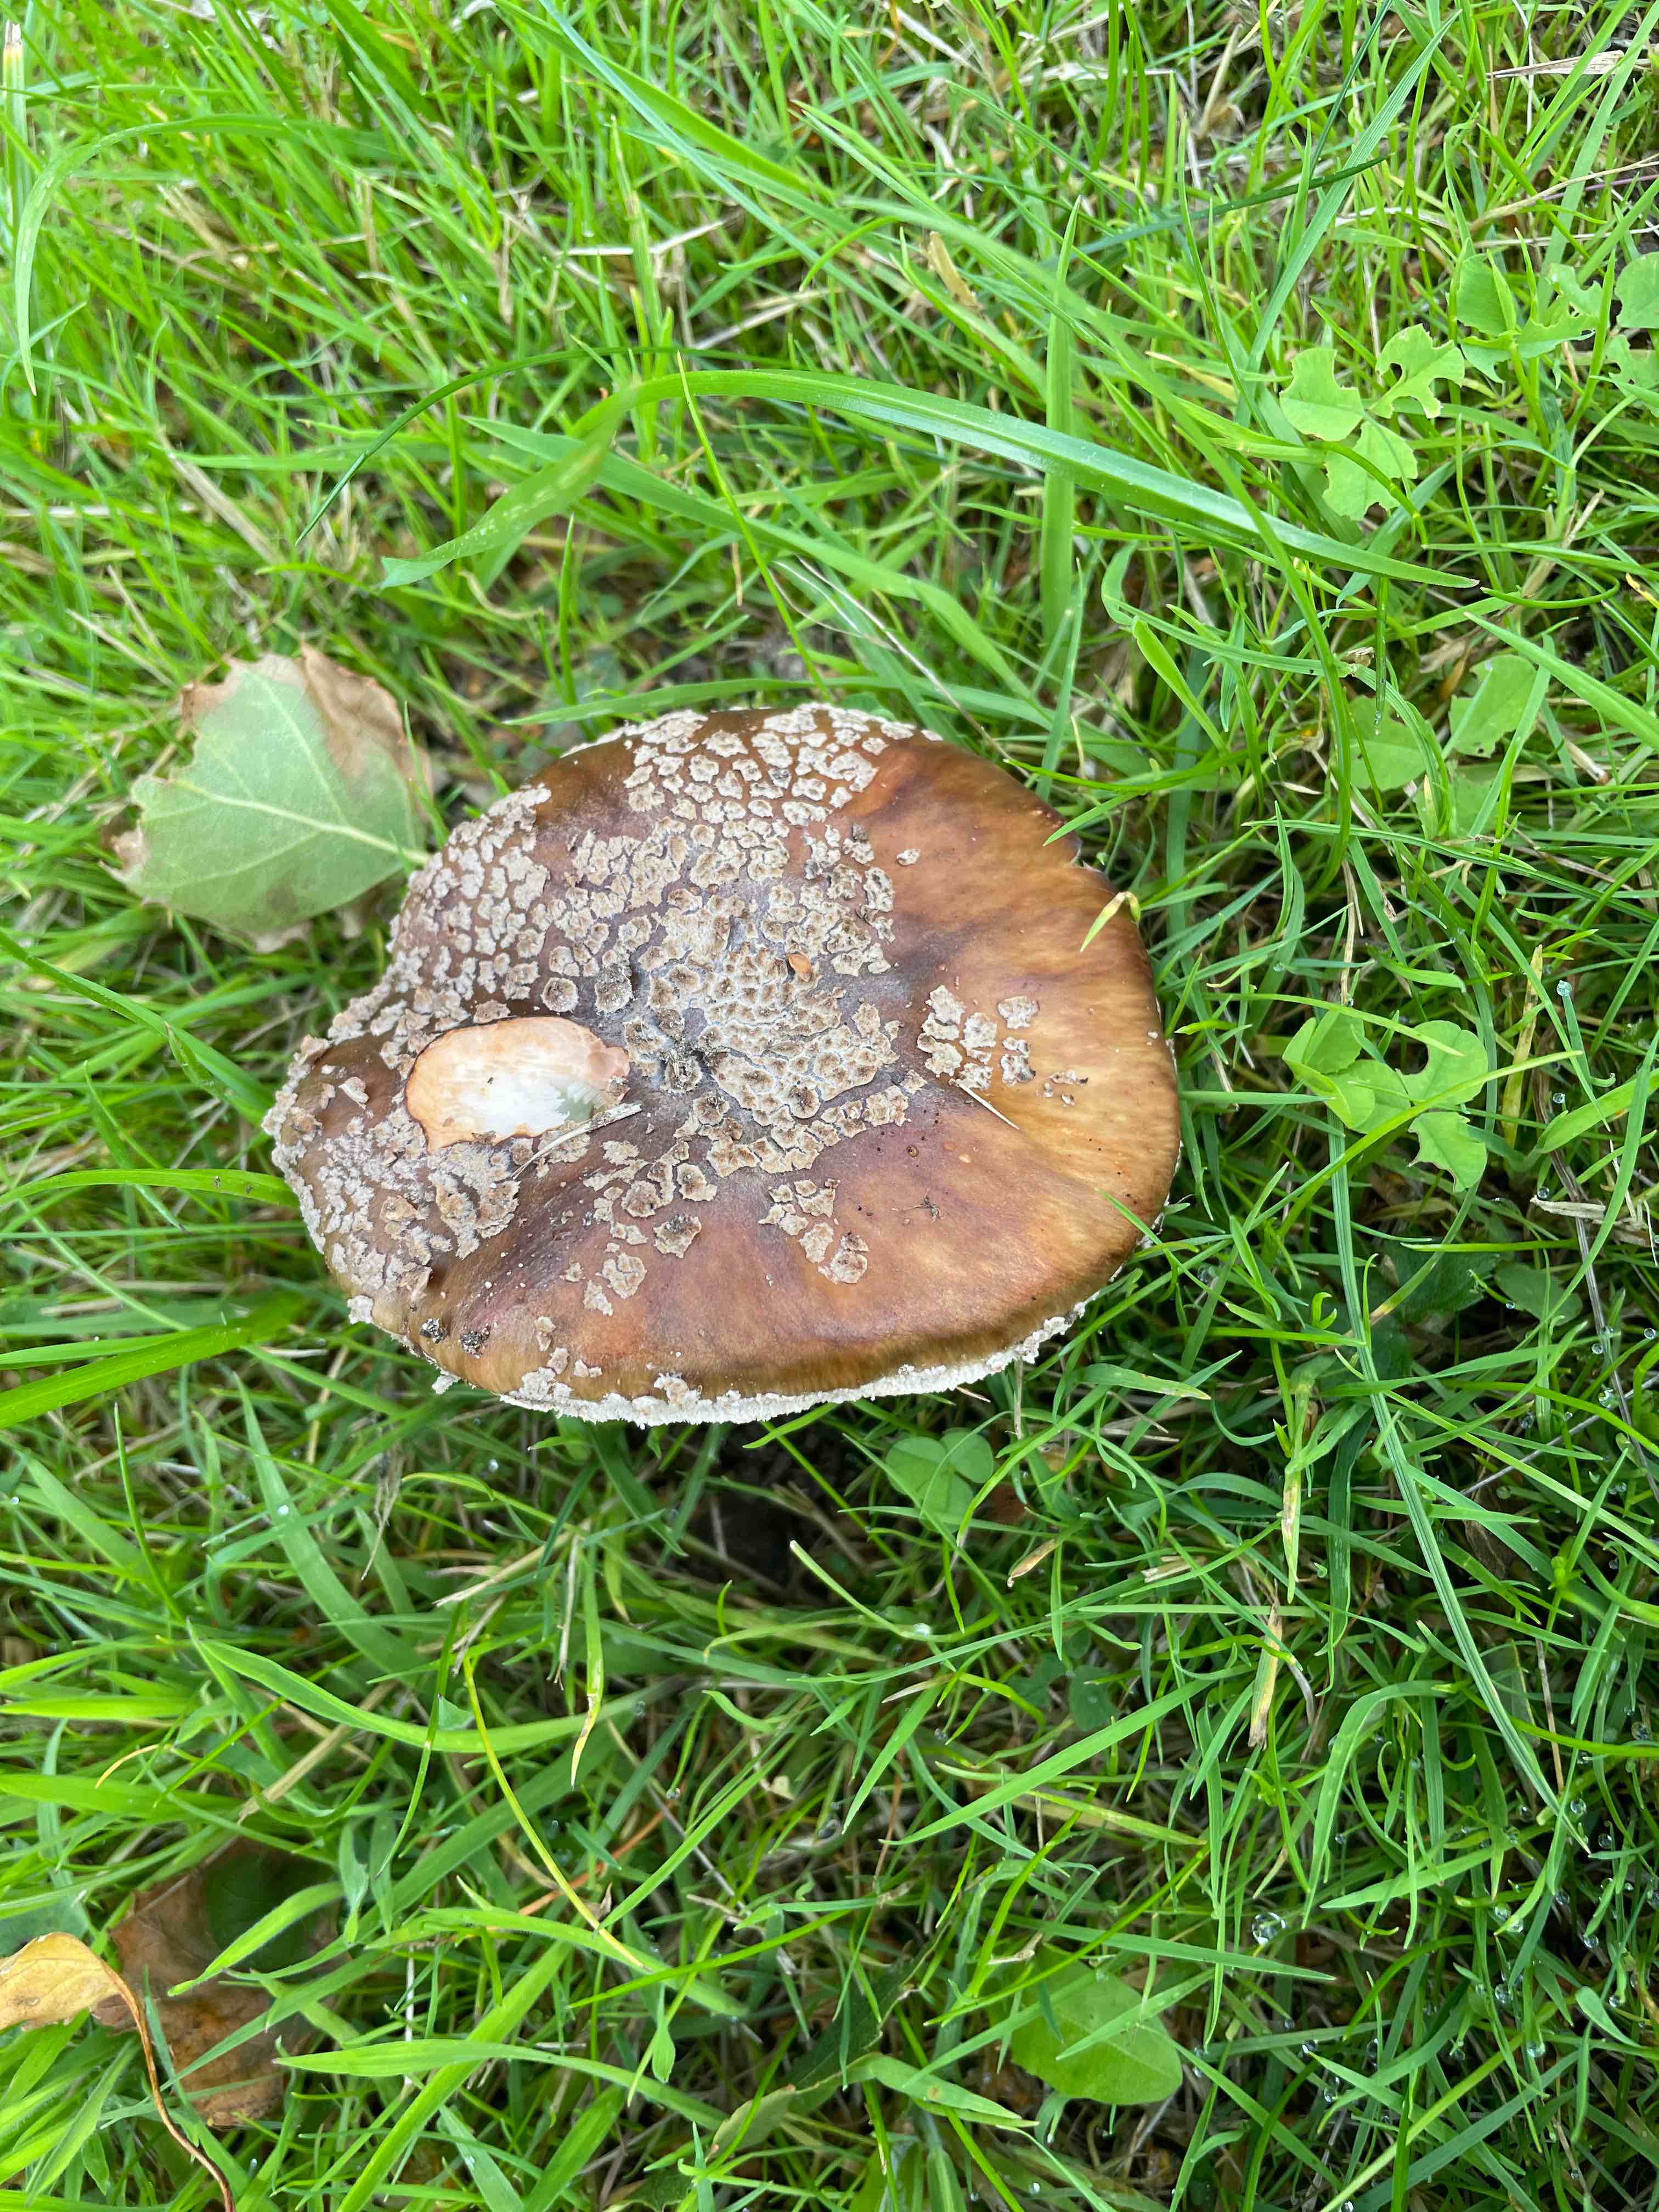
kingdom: Fungi
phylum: Basidiomycota
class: Agaricomycetes
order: Agaricales
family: Amanitaceae
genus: Amanita
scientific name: Amanita rubescens
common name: rødmende fluesvamp
